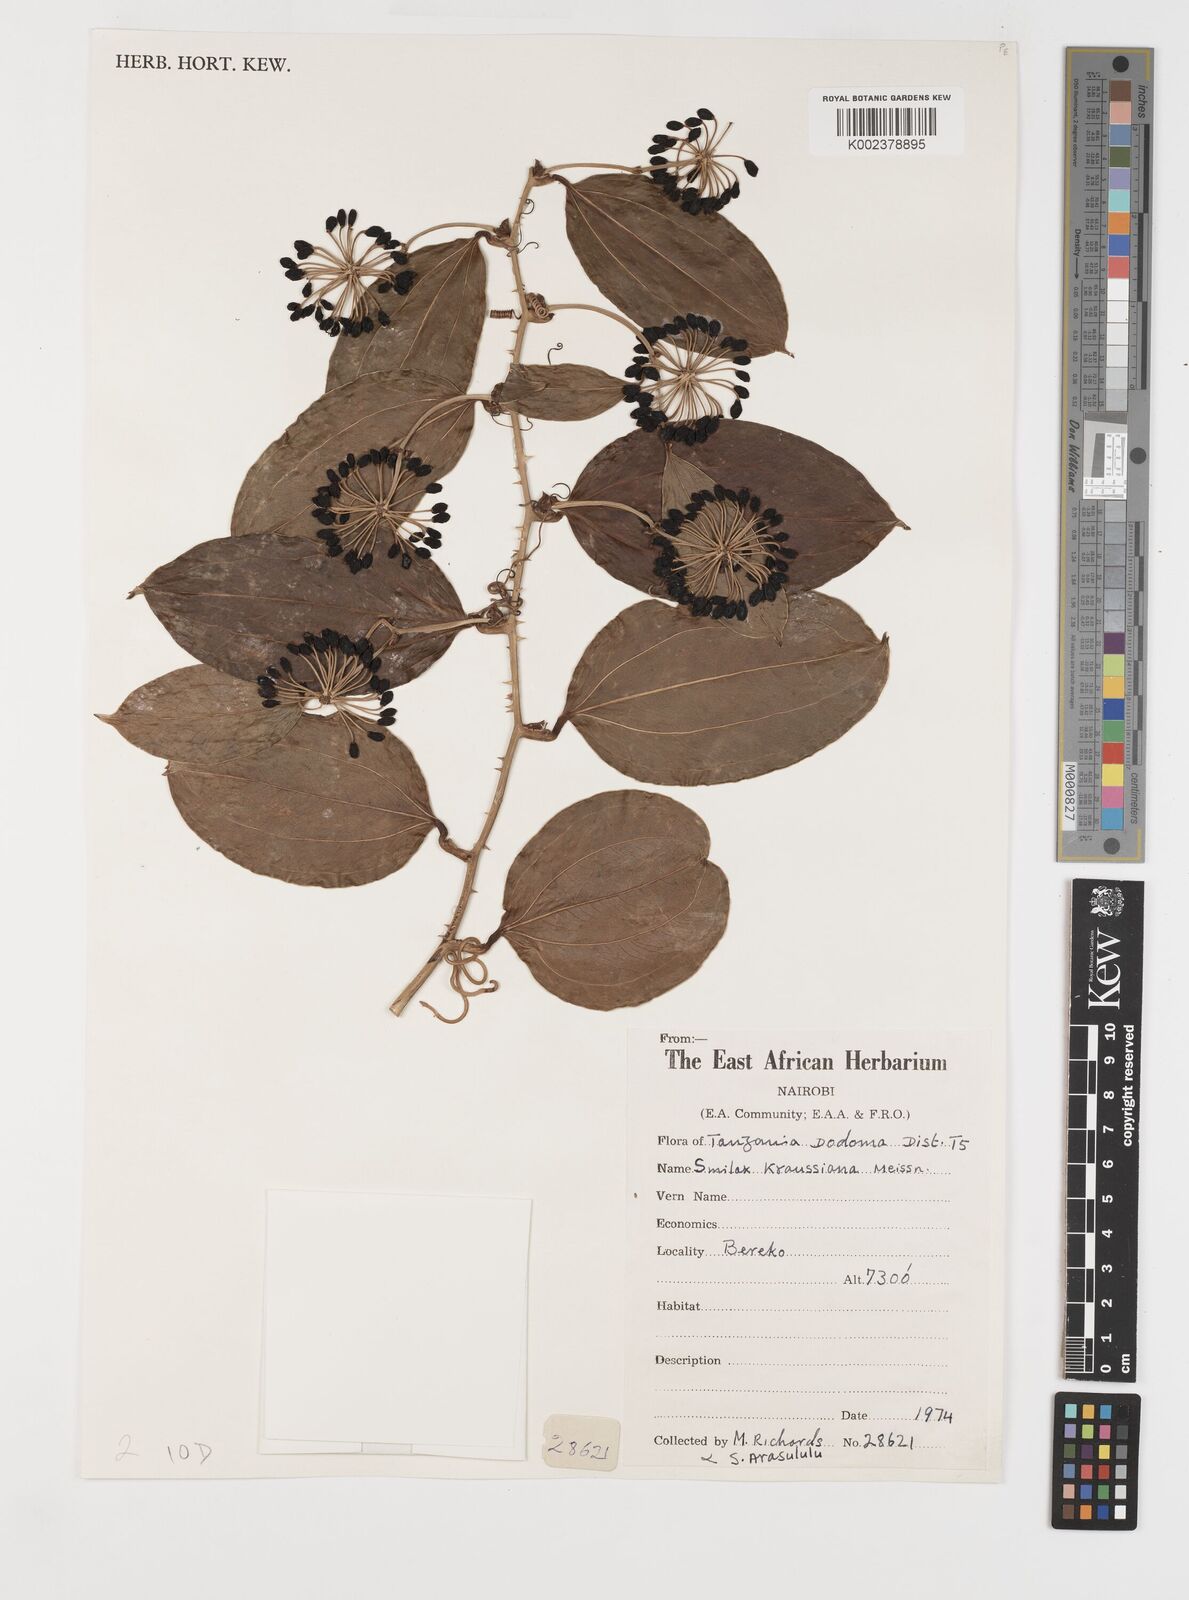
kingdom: Plantae
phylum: Tracheophyta
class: Liliopsida
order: Liliales
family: Smilacaceae
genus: Smilax
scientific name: Smilax anceps
